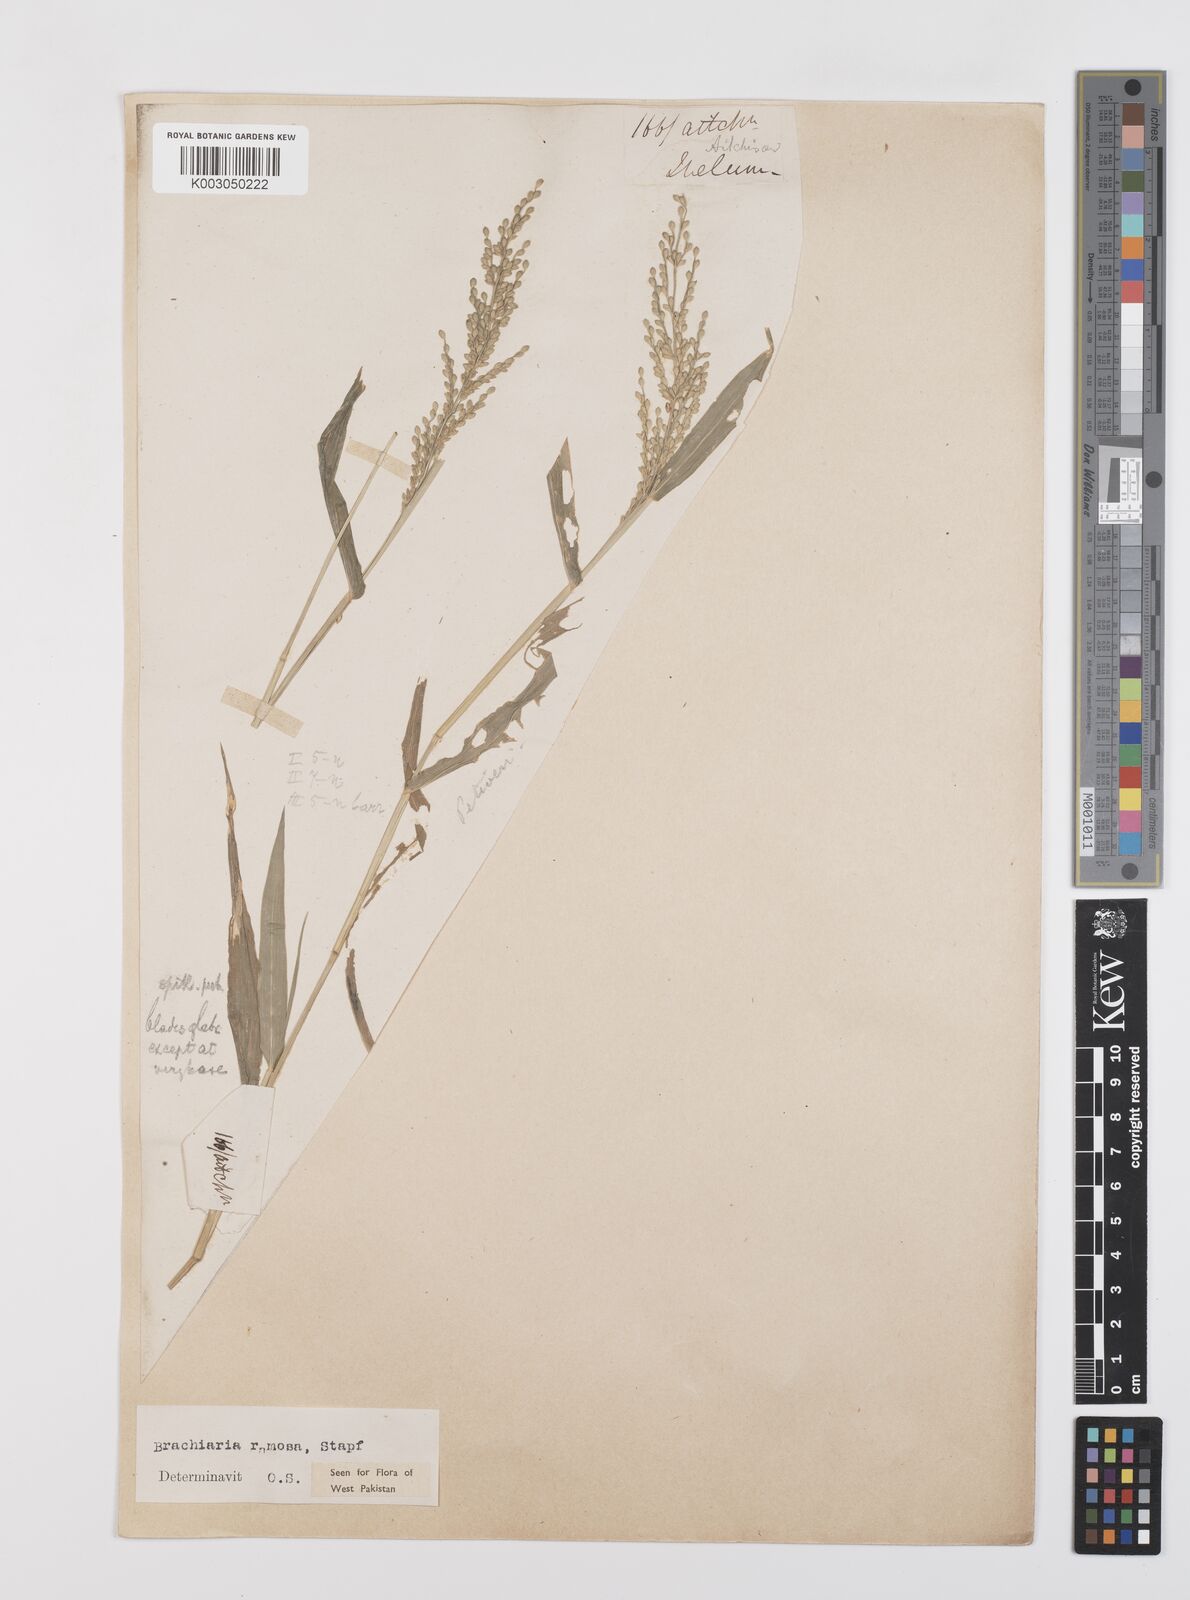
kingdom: Plantae
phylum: Tracheophyta
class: Liliopsida
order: Poales
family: Poaceae
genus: Urochloa
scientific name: Urochloa ramosa
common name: Browntop millet
